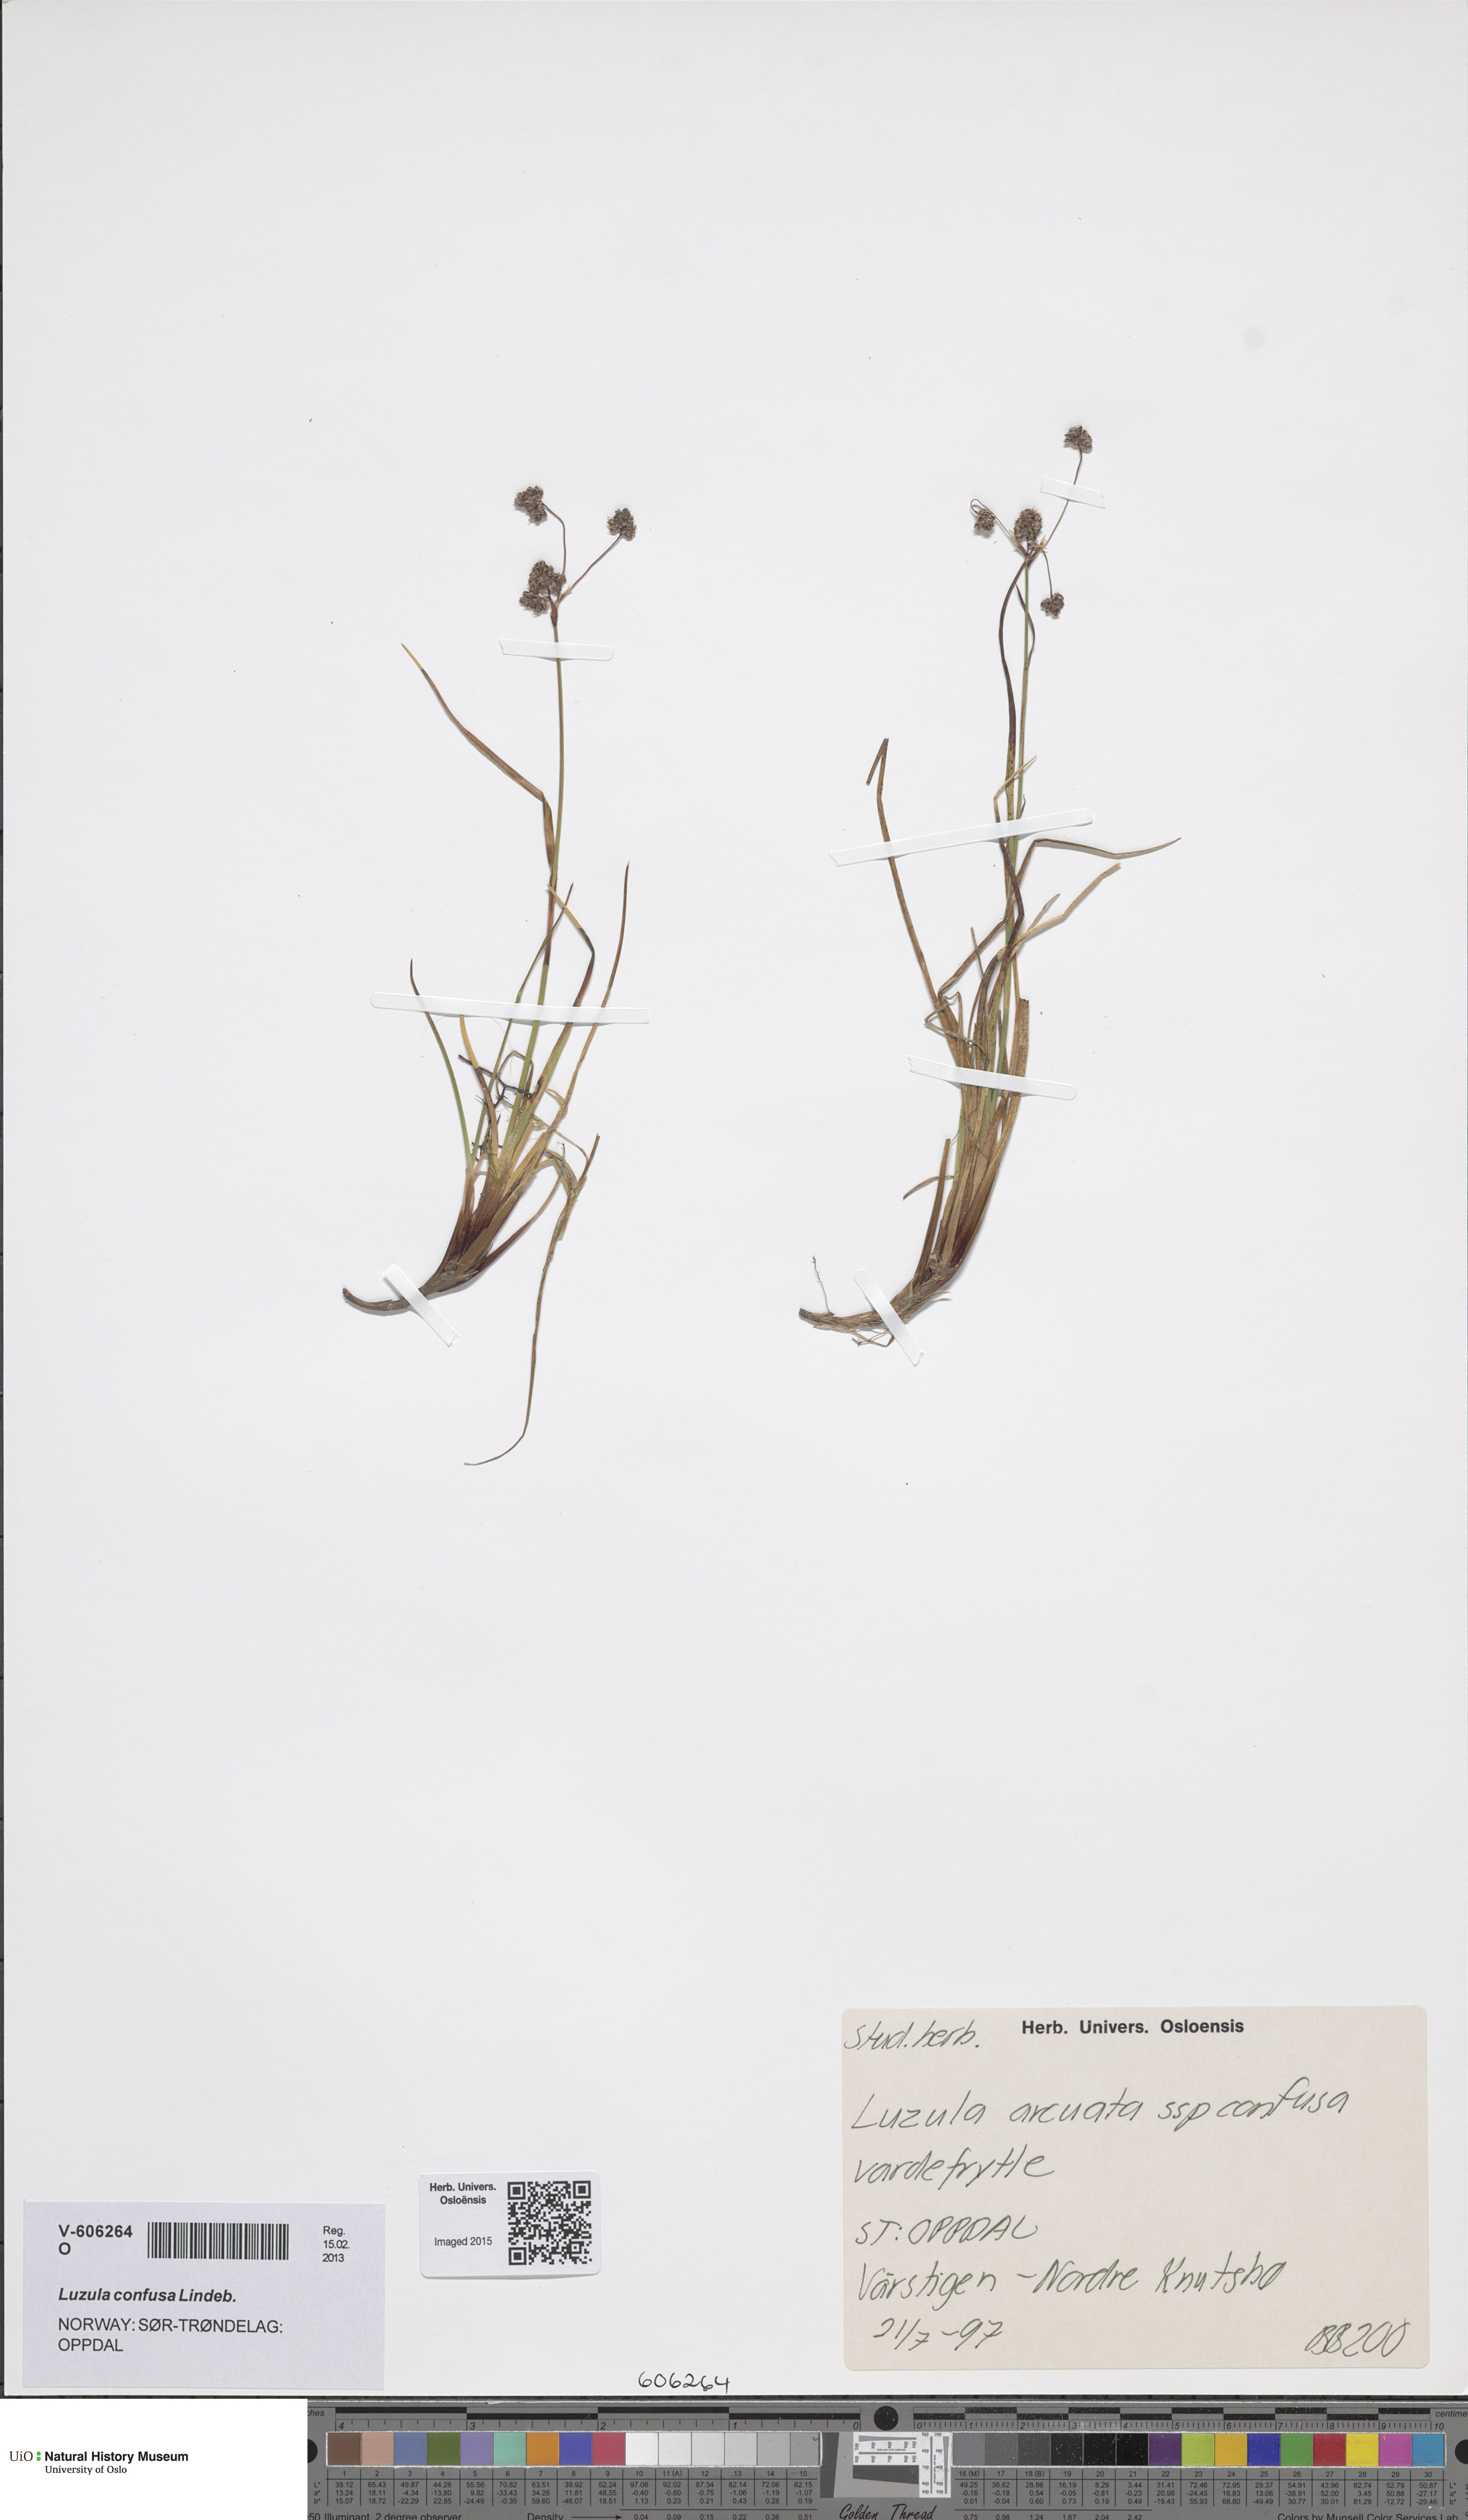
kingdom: Plantae
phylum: Tracheophyta
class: Liliopsida
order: Poales
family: Juncaceae
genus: Luzula
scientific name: Luzula confusa
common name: Northern wood rush
